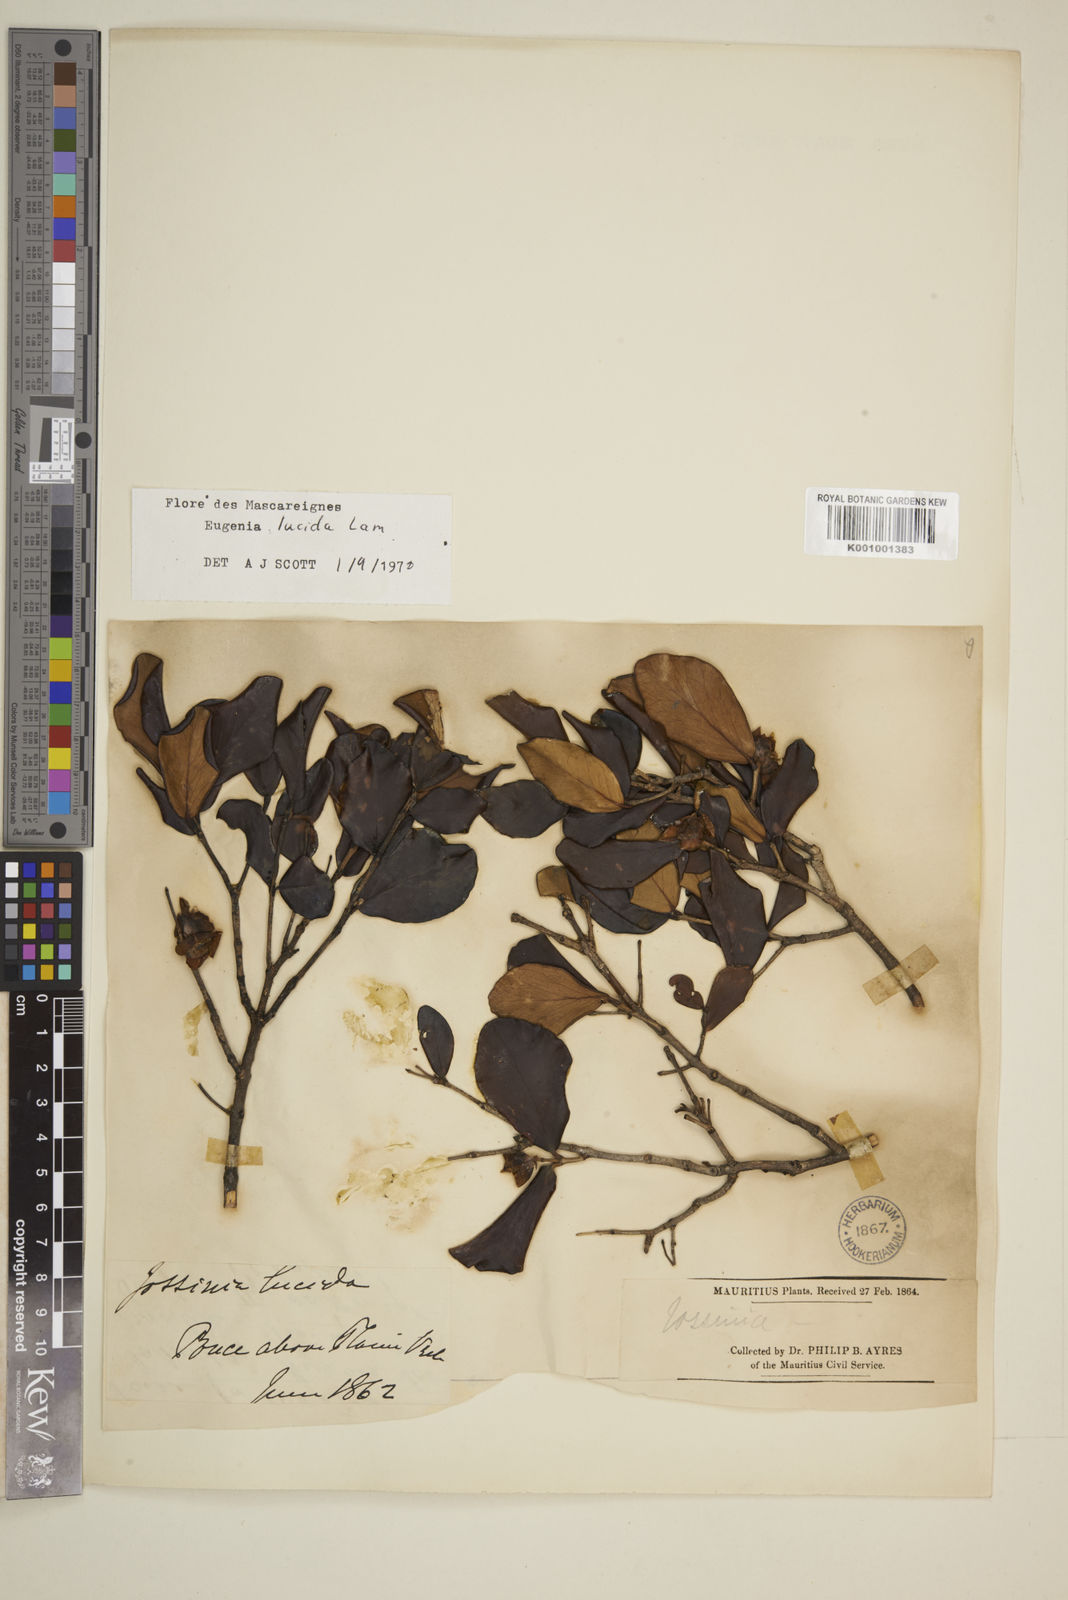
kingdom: Plantae
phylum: Tracheophyta
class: Magnoliopsida
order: Myrtales
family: Myrtaceae
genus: Eugenia
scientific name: Eugenia lucida
